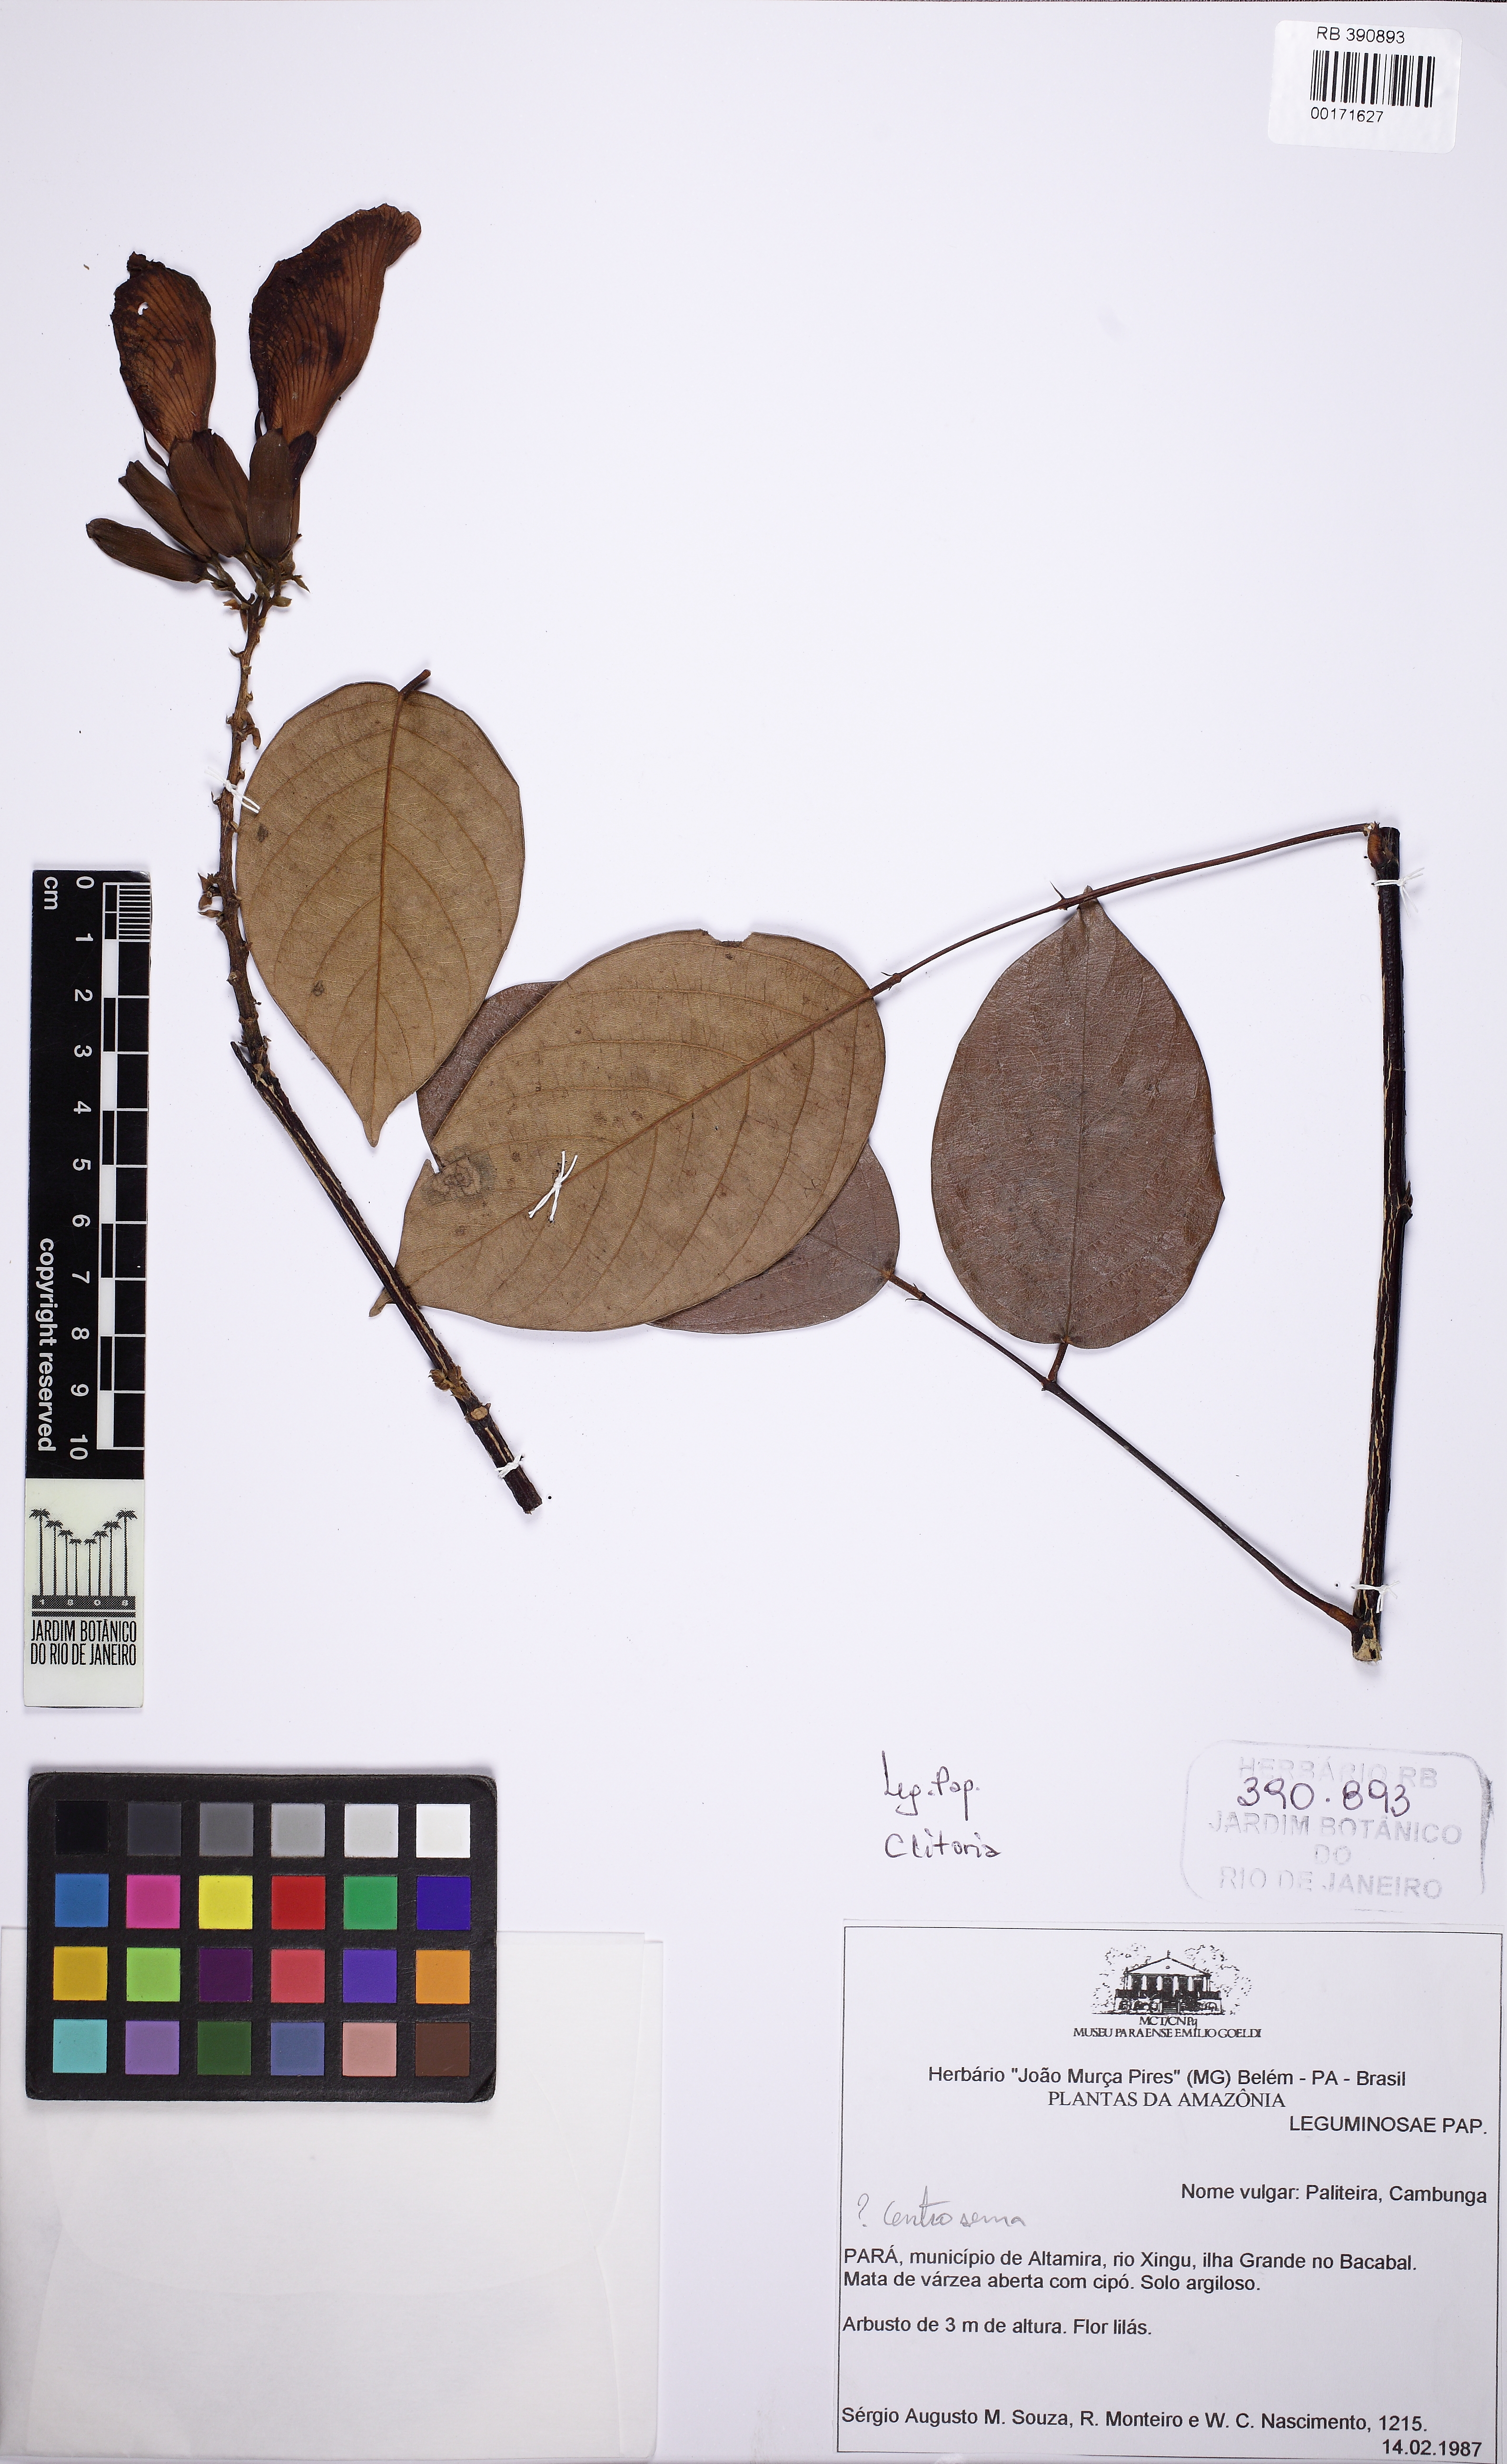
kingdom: Plantae
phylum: Tracheophyta
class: Magnoliopsida
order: Fabales
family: Fabaceae
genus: Clitoria
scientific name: Clitoria
